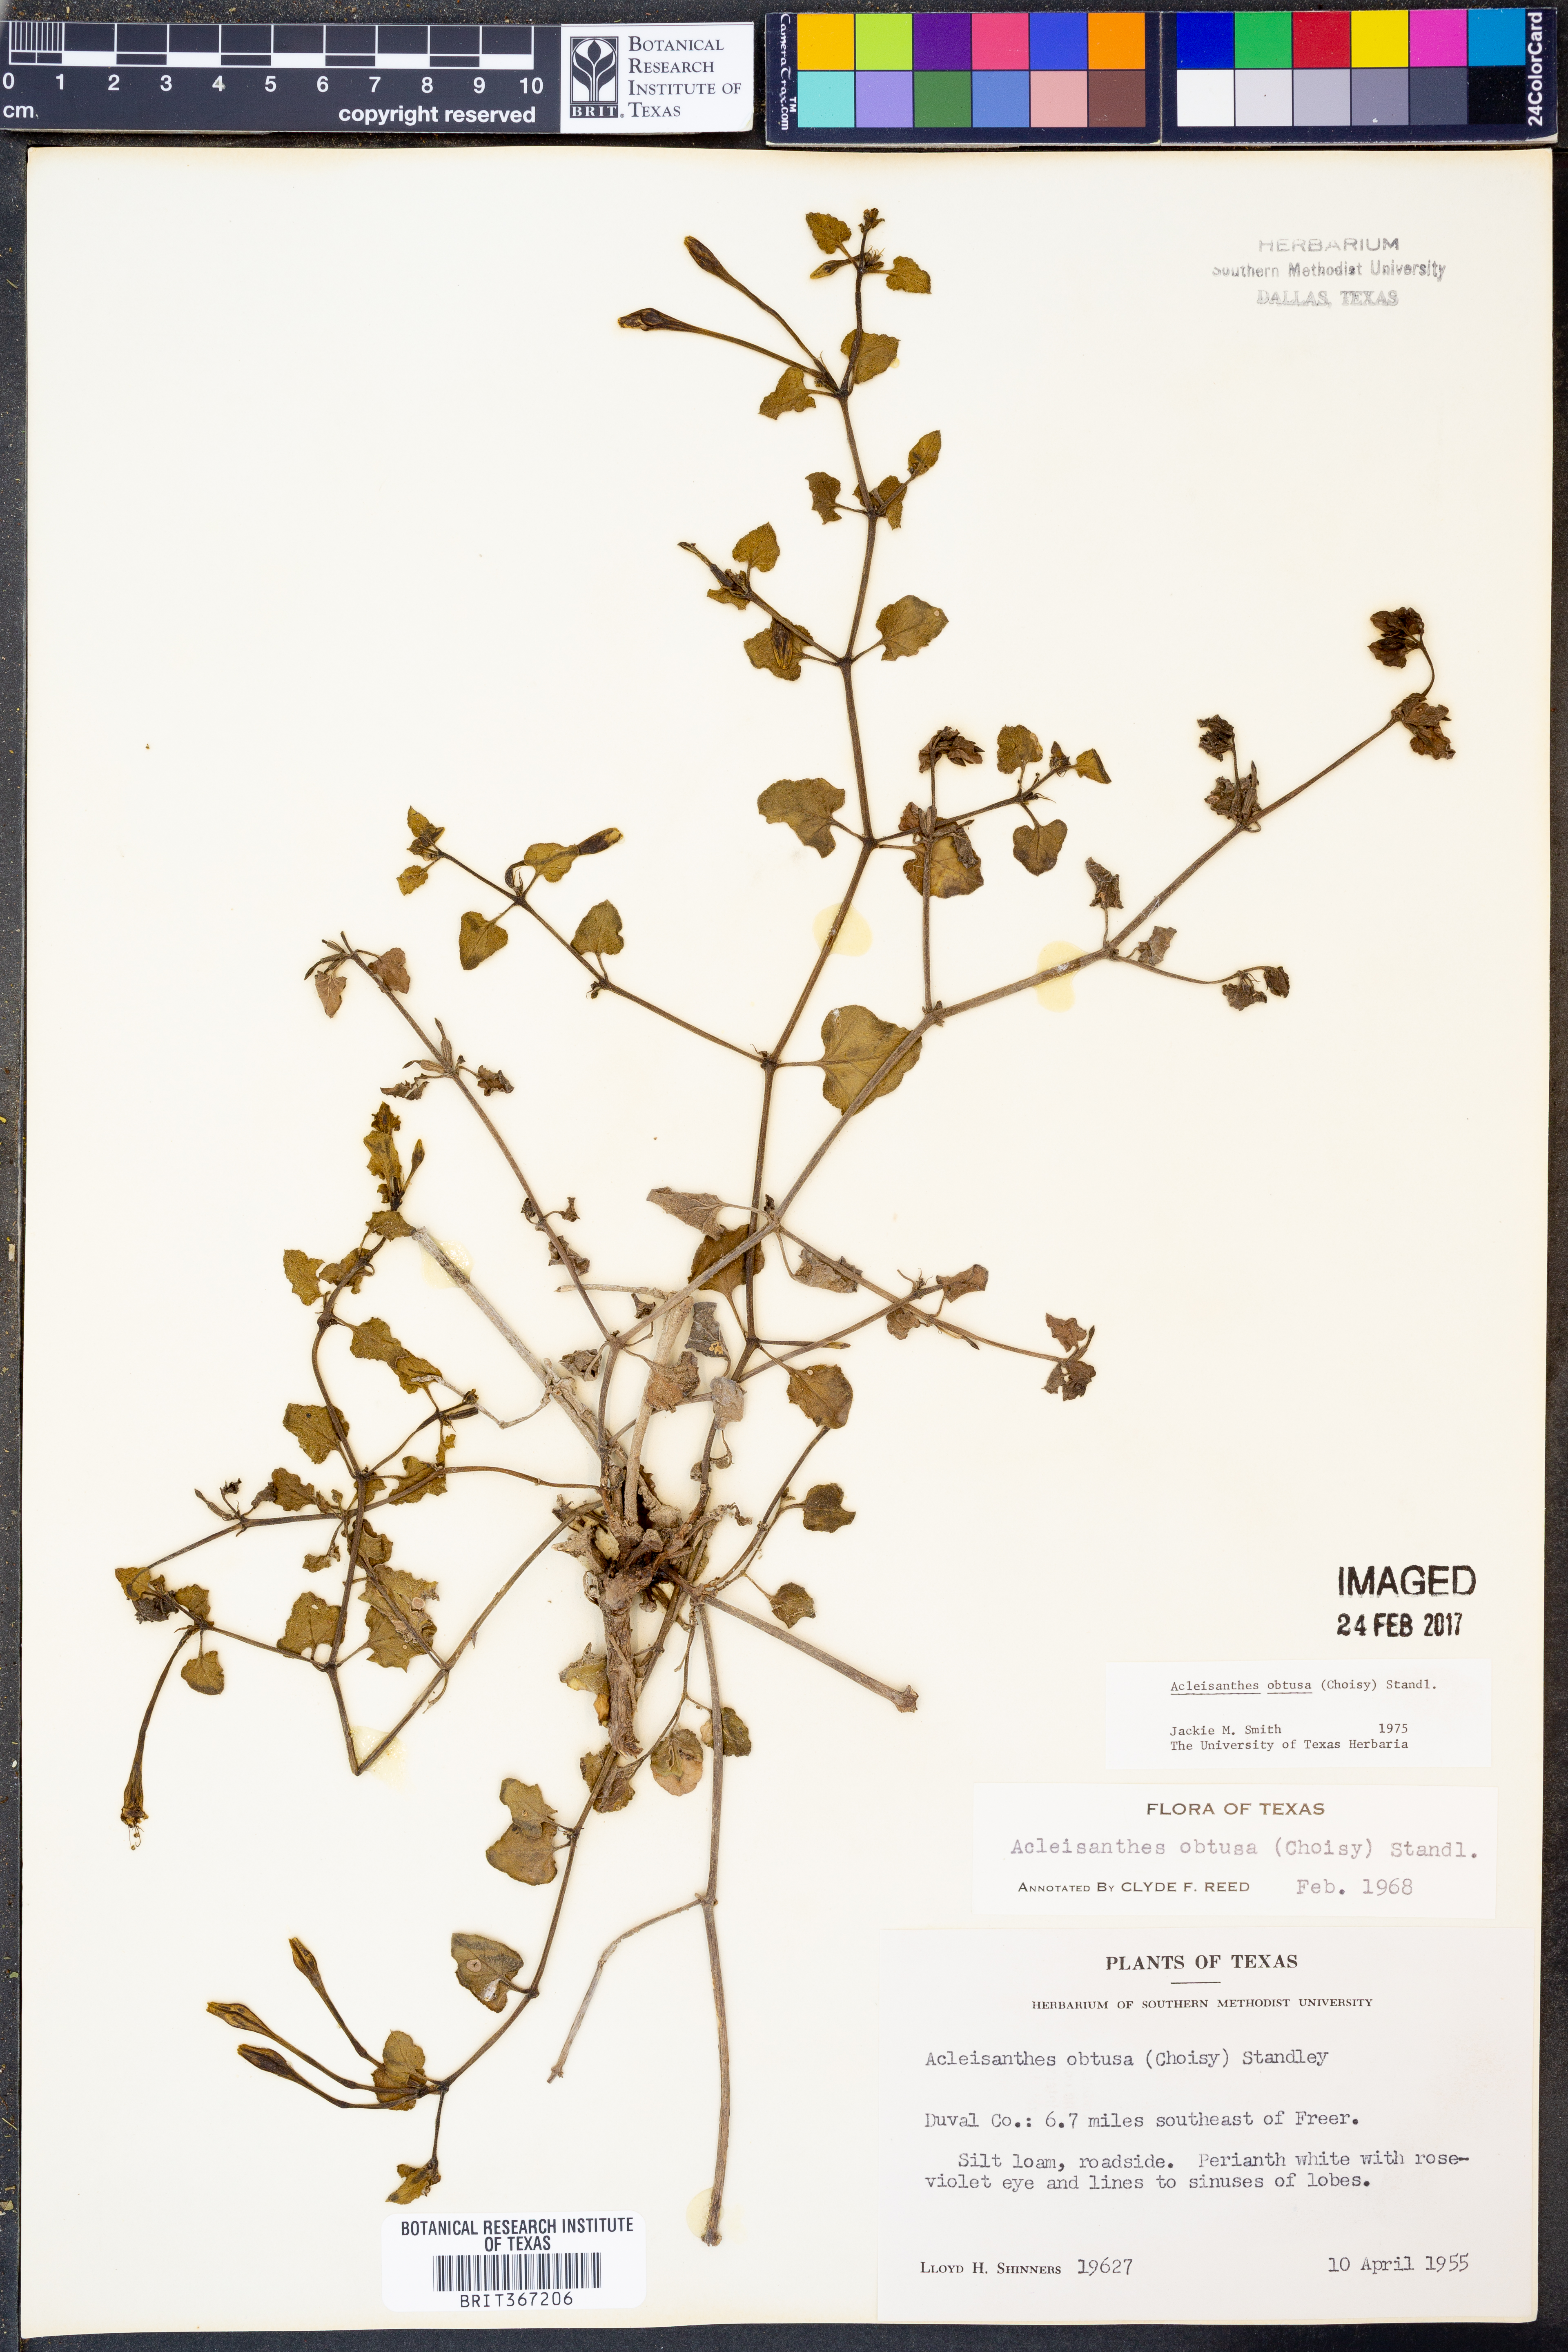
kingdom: Plantae
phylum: Tracheophyta
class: Magnoliopsida
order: Caryophyllales
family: Nyctaginaceae
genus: Acleisanthes
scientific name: Acleisanthes obtusa
